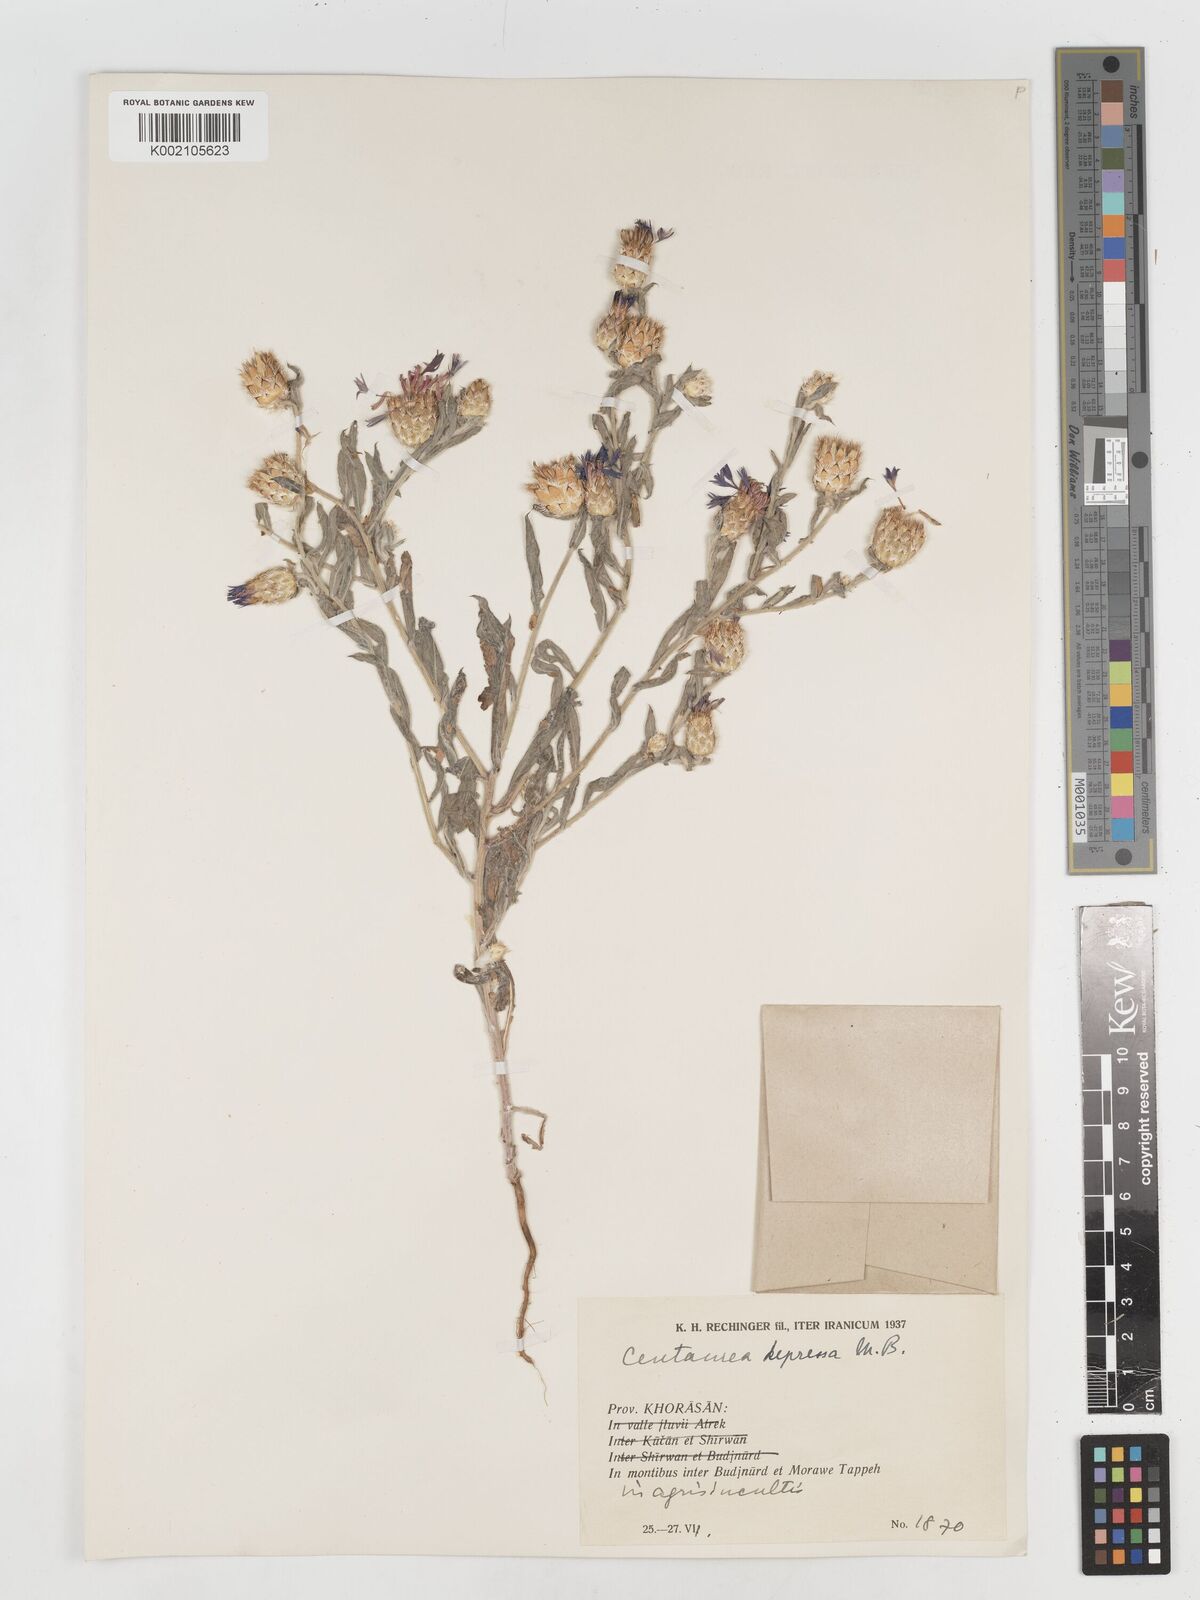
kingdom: Plantae
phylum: Tracheophyta
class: Magnoliopsida
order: Asterales
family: Asteraceae
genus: Centaurea
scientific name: Centaurea depressa
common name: Iranian knapweed
